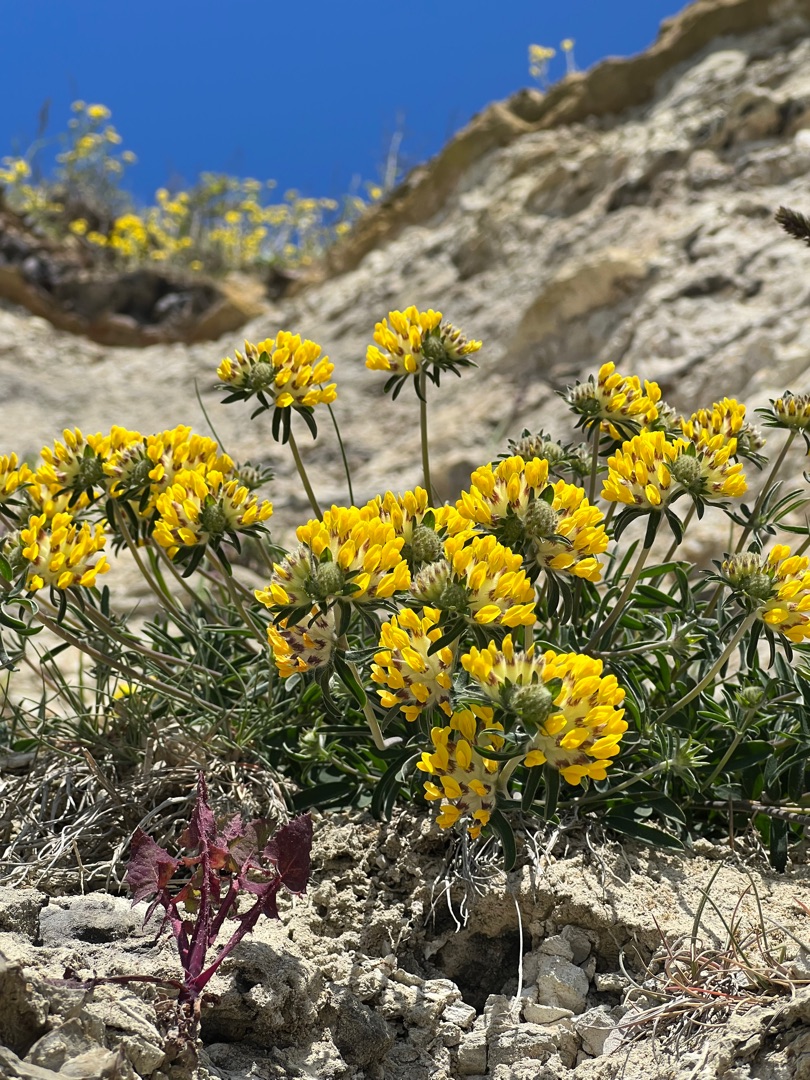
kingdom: Plantae
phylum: Tracheophyta
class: Magnoliopsida
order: Fabales
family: Fabaceae
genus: Anthyllis
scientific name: Anthyllis vulneraria
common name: Rundbælg
